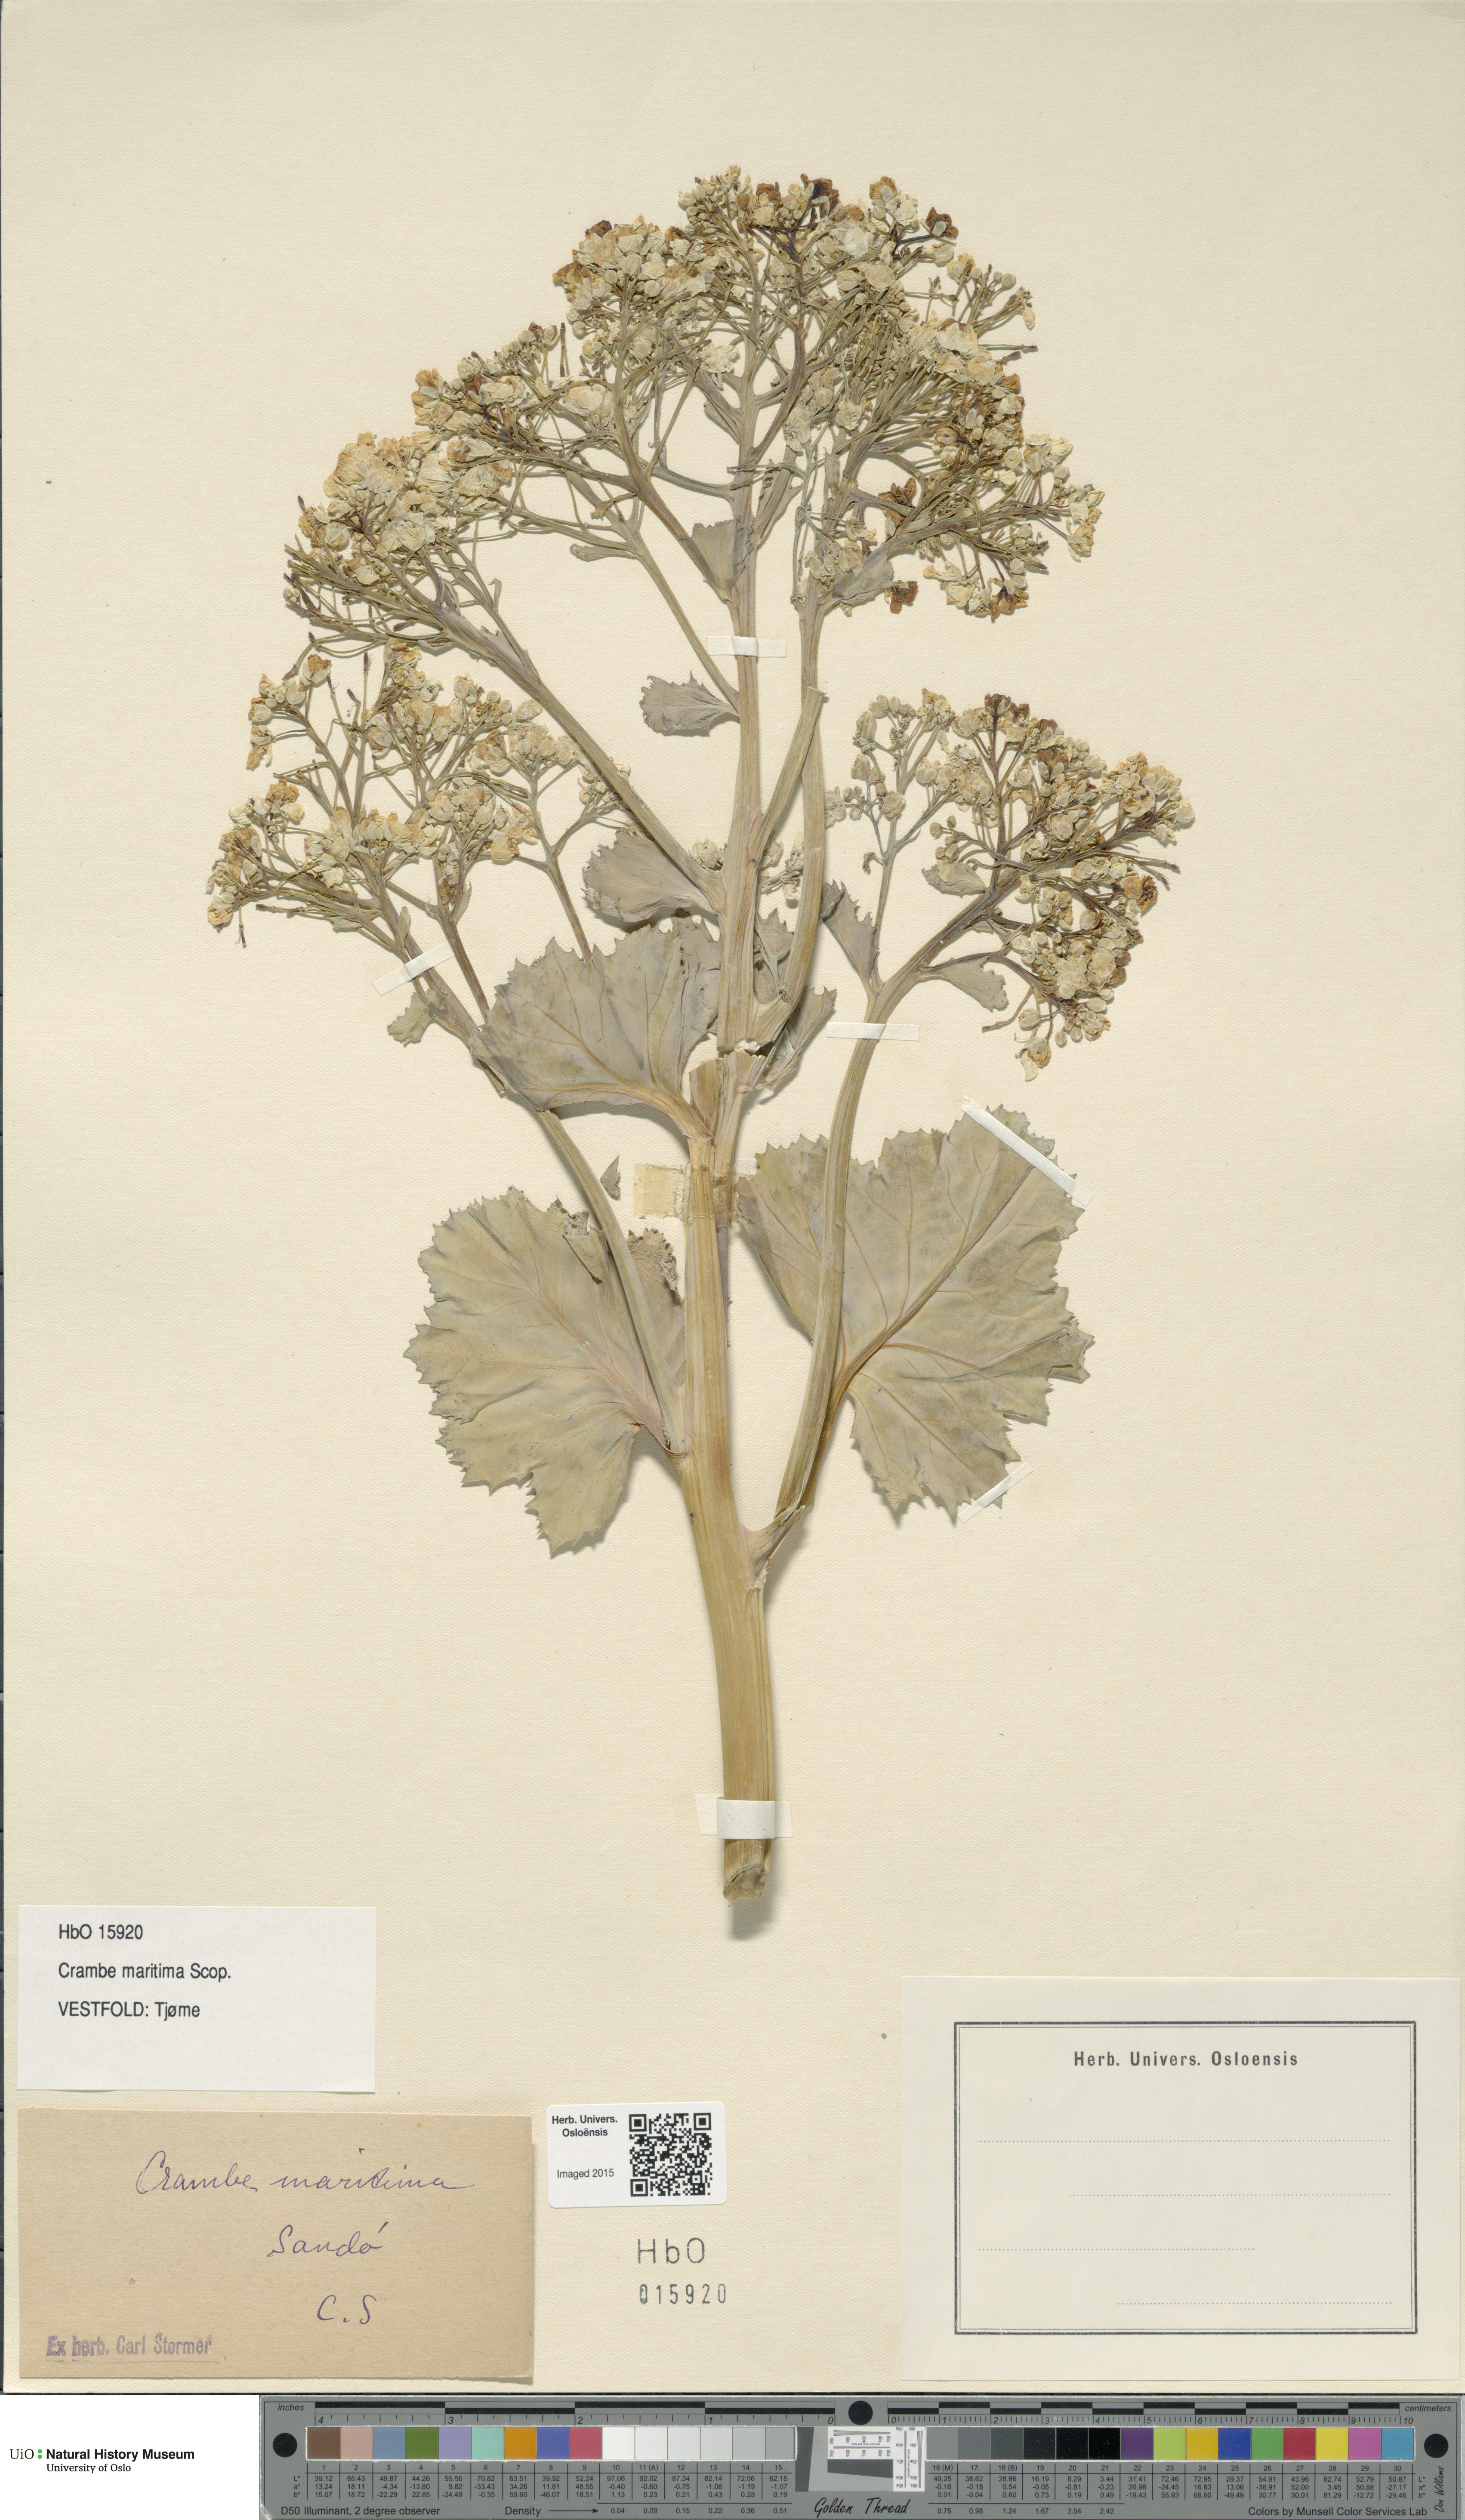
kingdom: Plantae
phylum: Tracheophyta
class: Magnoliopsida
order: Brassicales
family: Brassicaceae
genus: Crambe
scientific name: Crambe maritima
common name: Sea-kale
